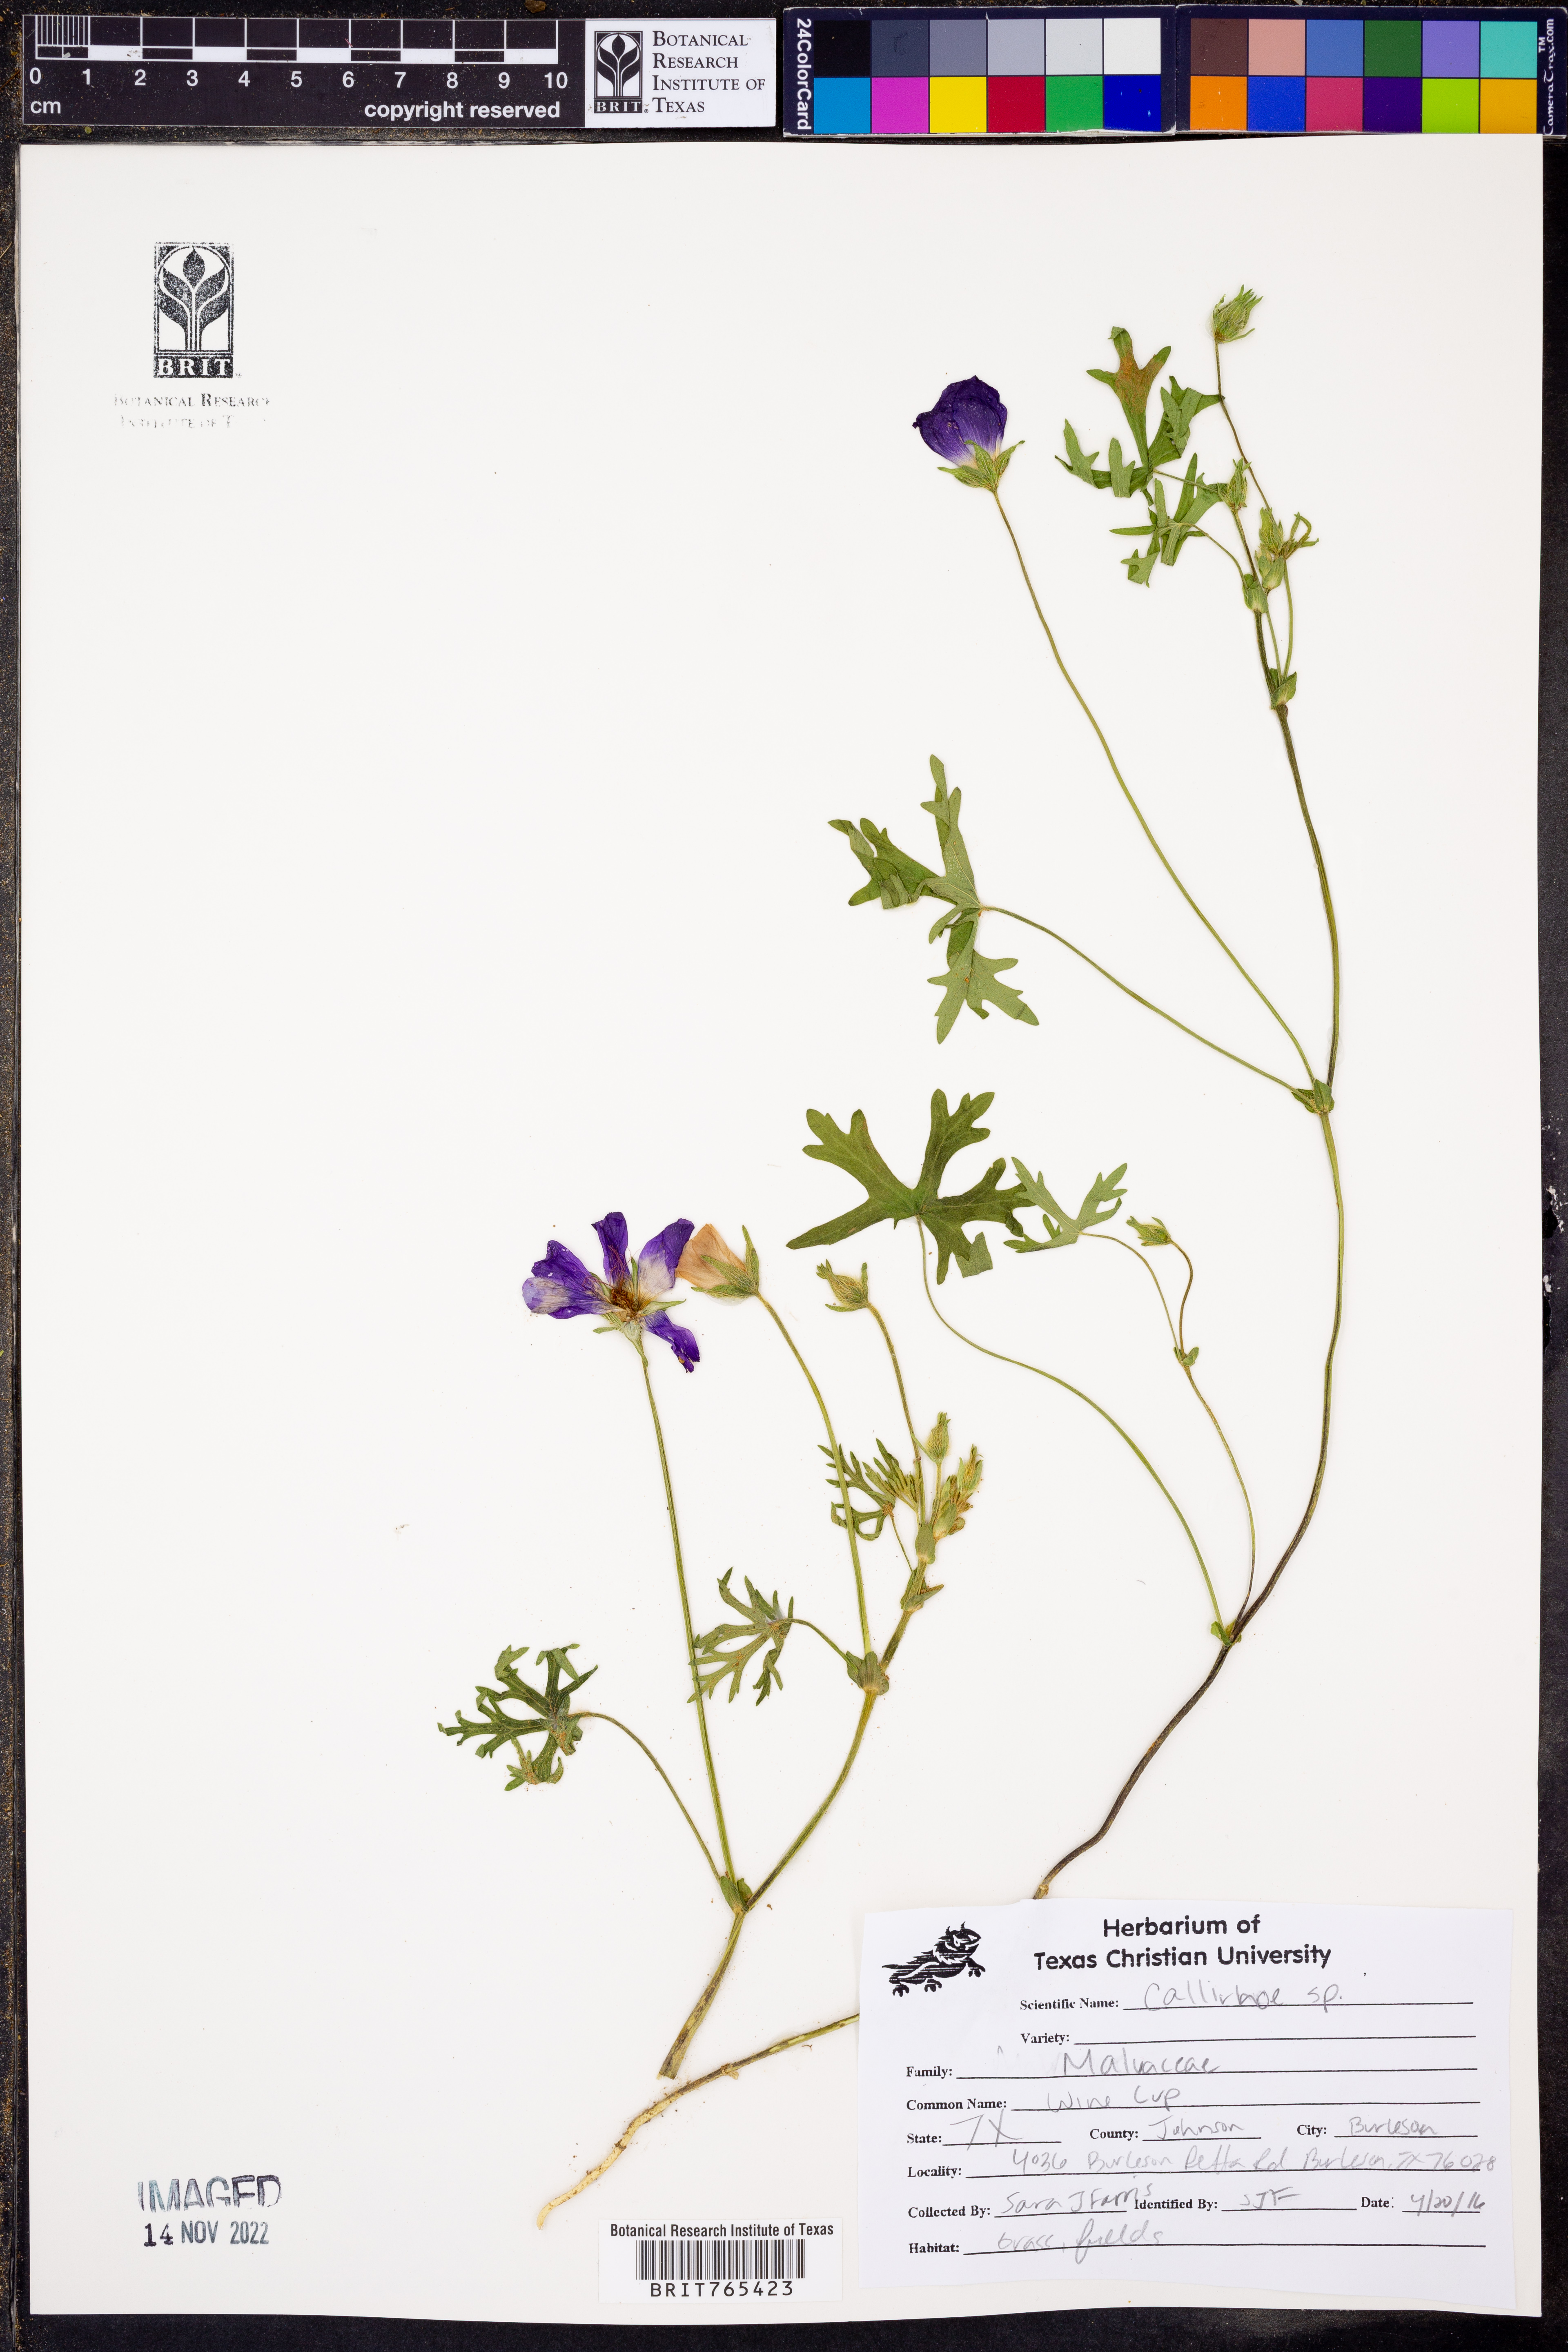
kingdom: Plantae
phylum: Tracheophyta
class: Magnoliopsida
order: Malvales
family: Malvaceae
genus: Callirhoe
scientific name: Callirhoe
